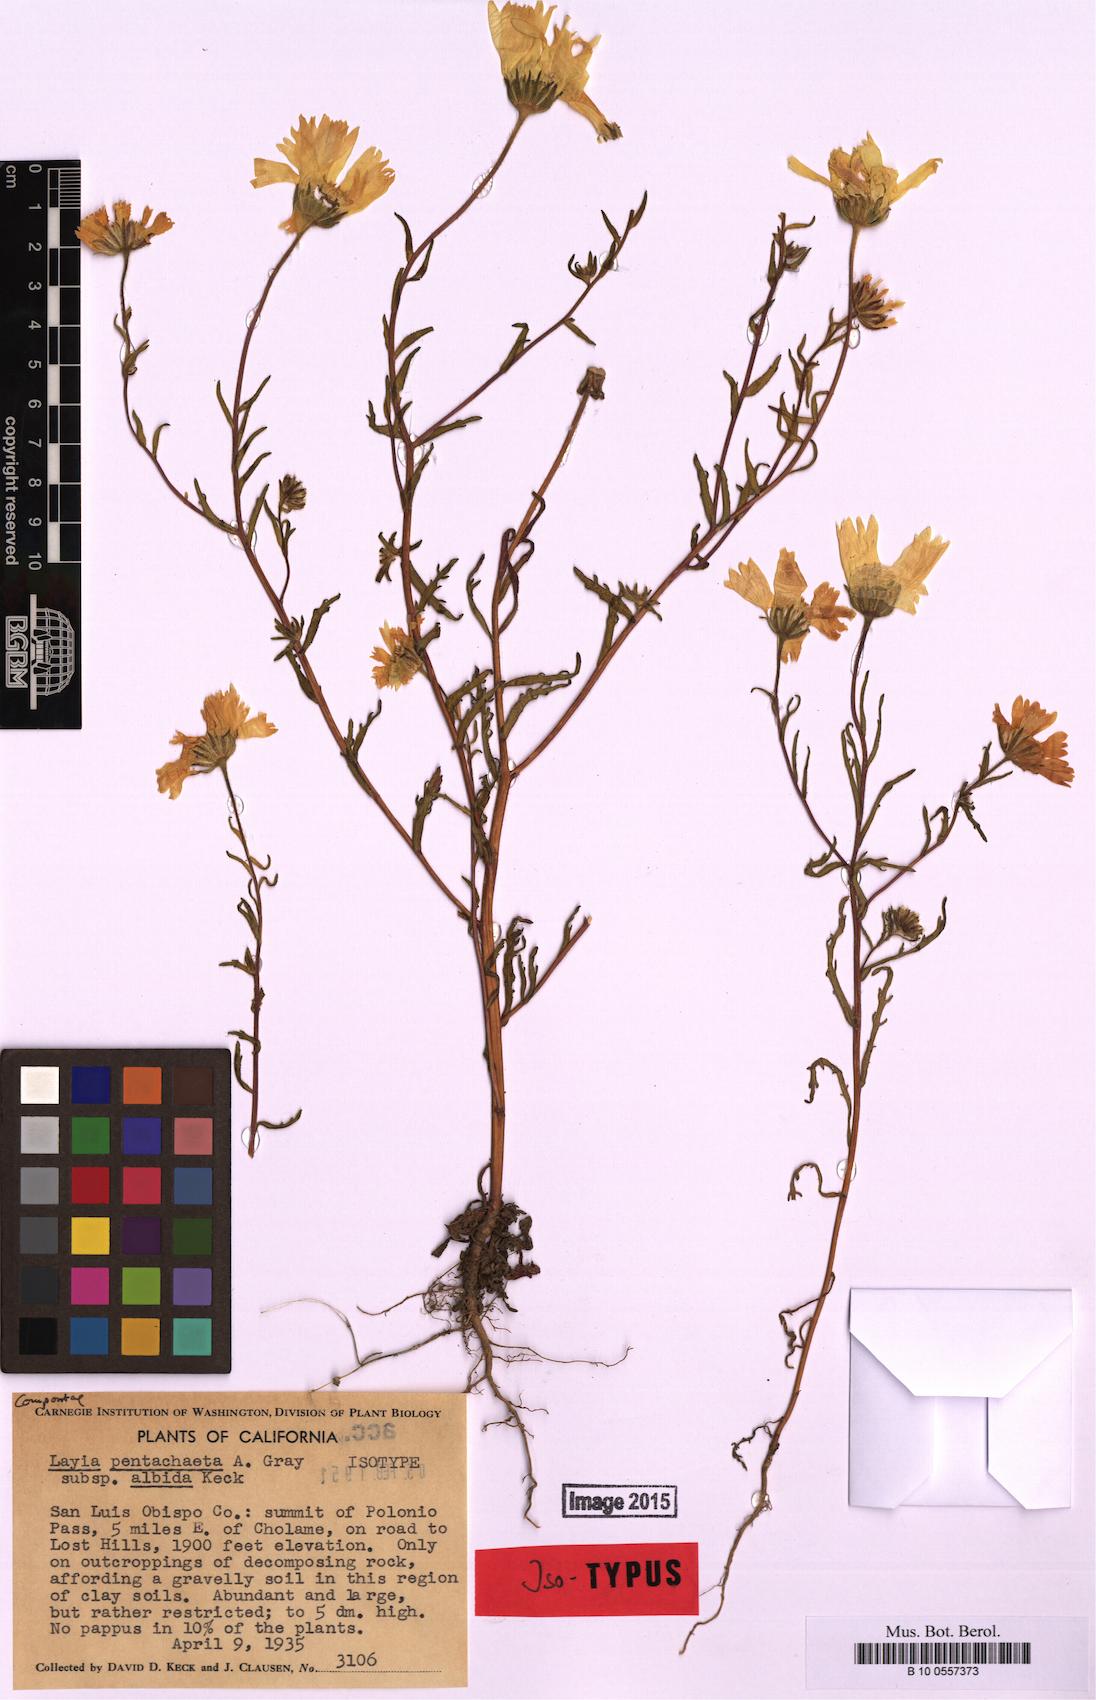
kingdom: Plantae
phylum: Tracheophyta
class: Magnoliopsida
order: Asterales
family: Asteraceae
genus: Layia
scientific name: Layia pentachaeta
